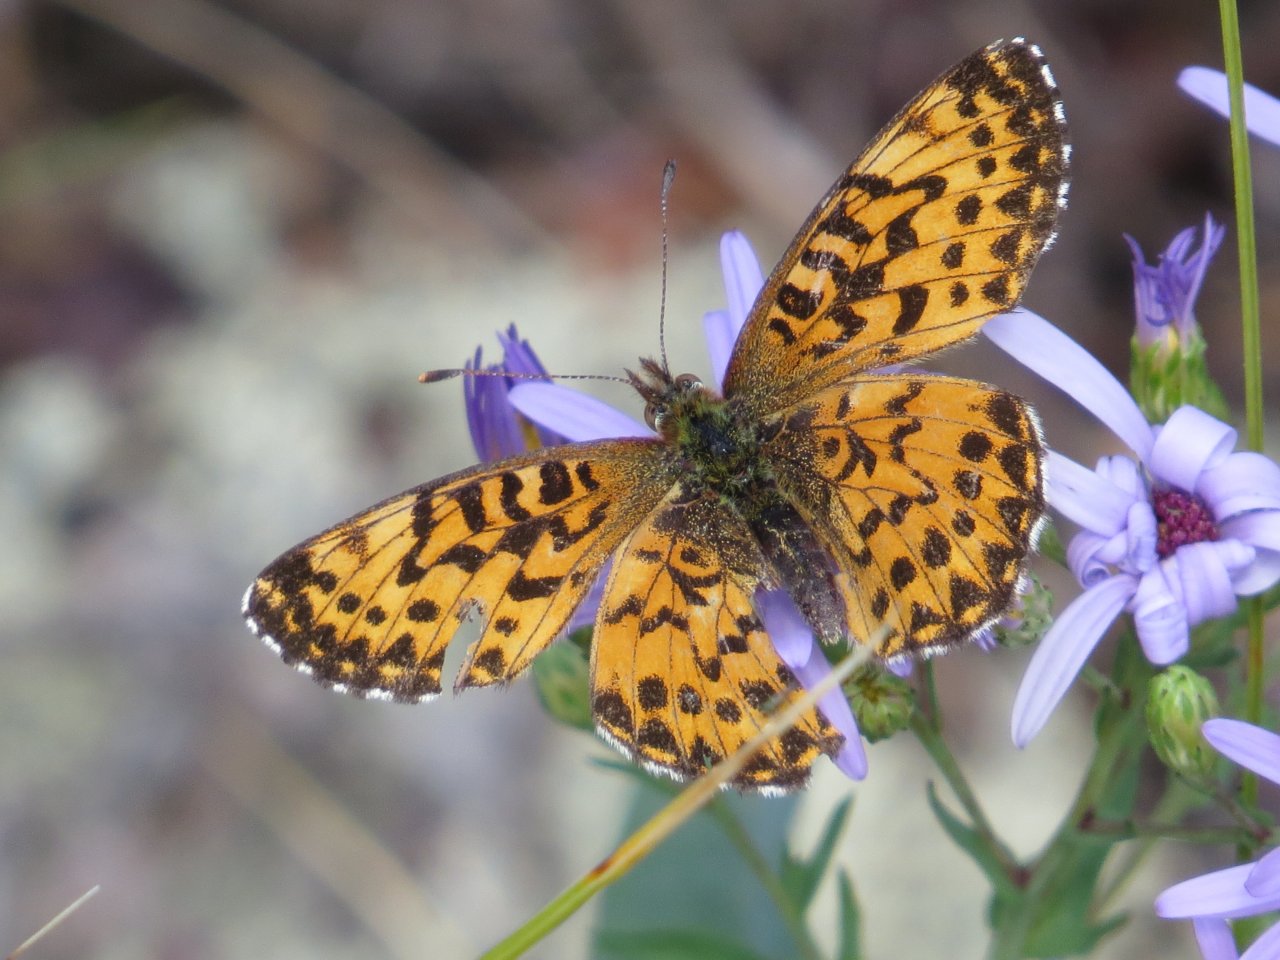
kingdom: Animalia
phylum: Arthropoda
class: Insecta
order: Lepidoptera
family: Nymphalidae
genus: Boloria
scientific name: Boloria selene
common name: Silver-bordered Fritillary
